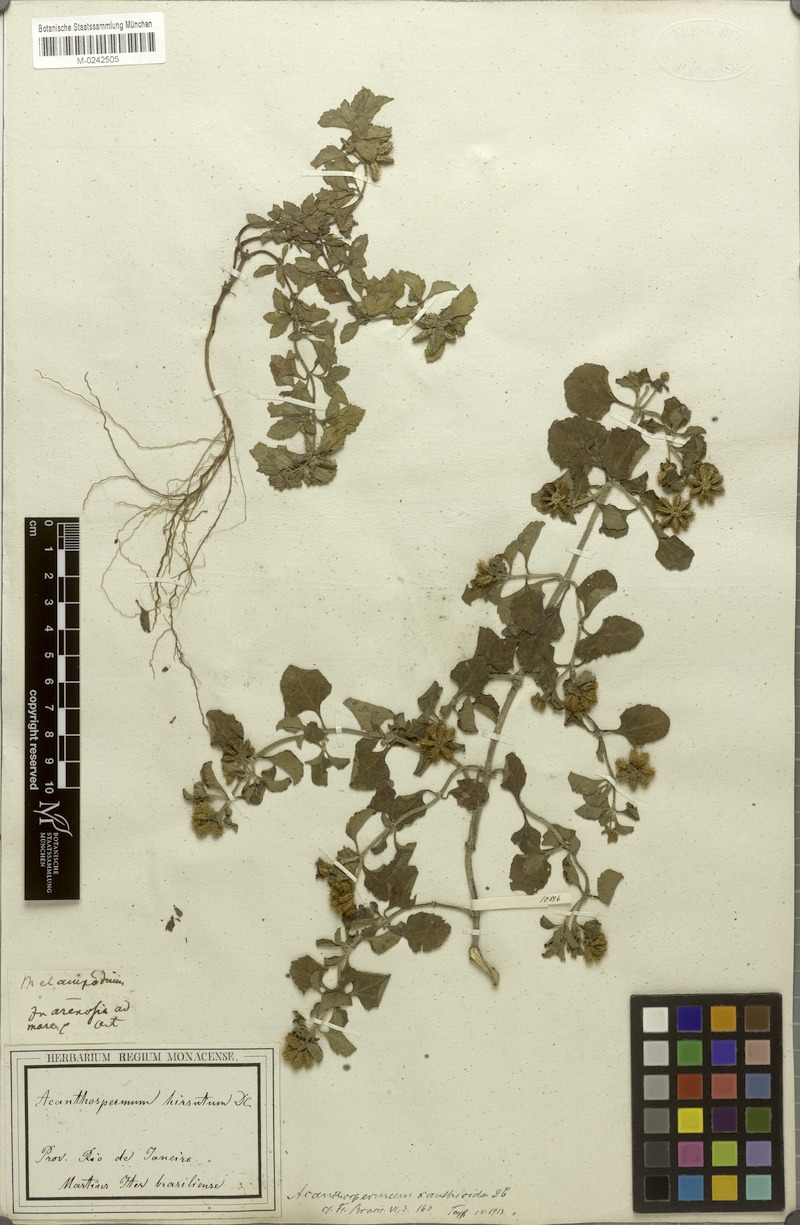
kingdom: Plantae
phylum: Tracheophyta
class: Magnoliopsida
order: Asterales
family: Asteraceae
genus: Acanthospermum
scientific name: Acanthospermum australe
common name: Paraguayan starbur
